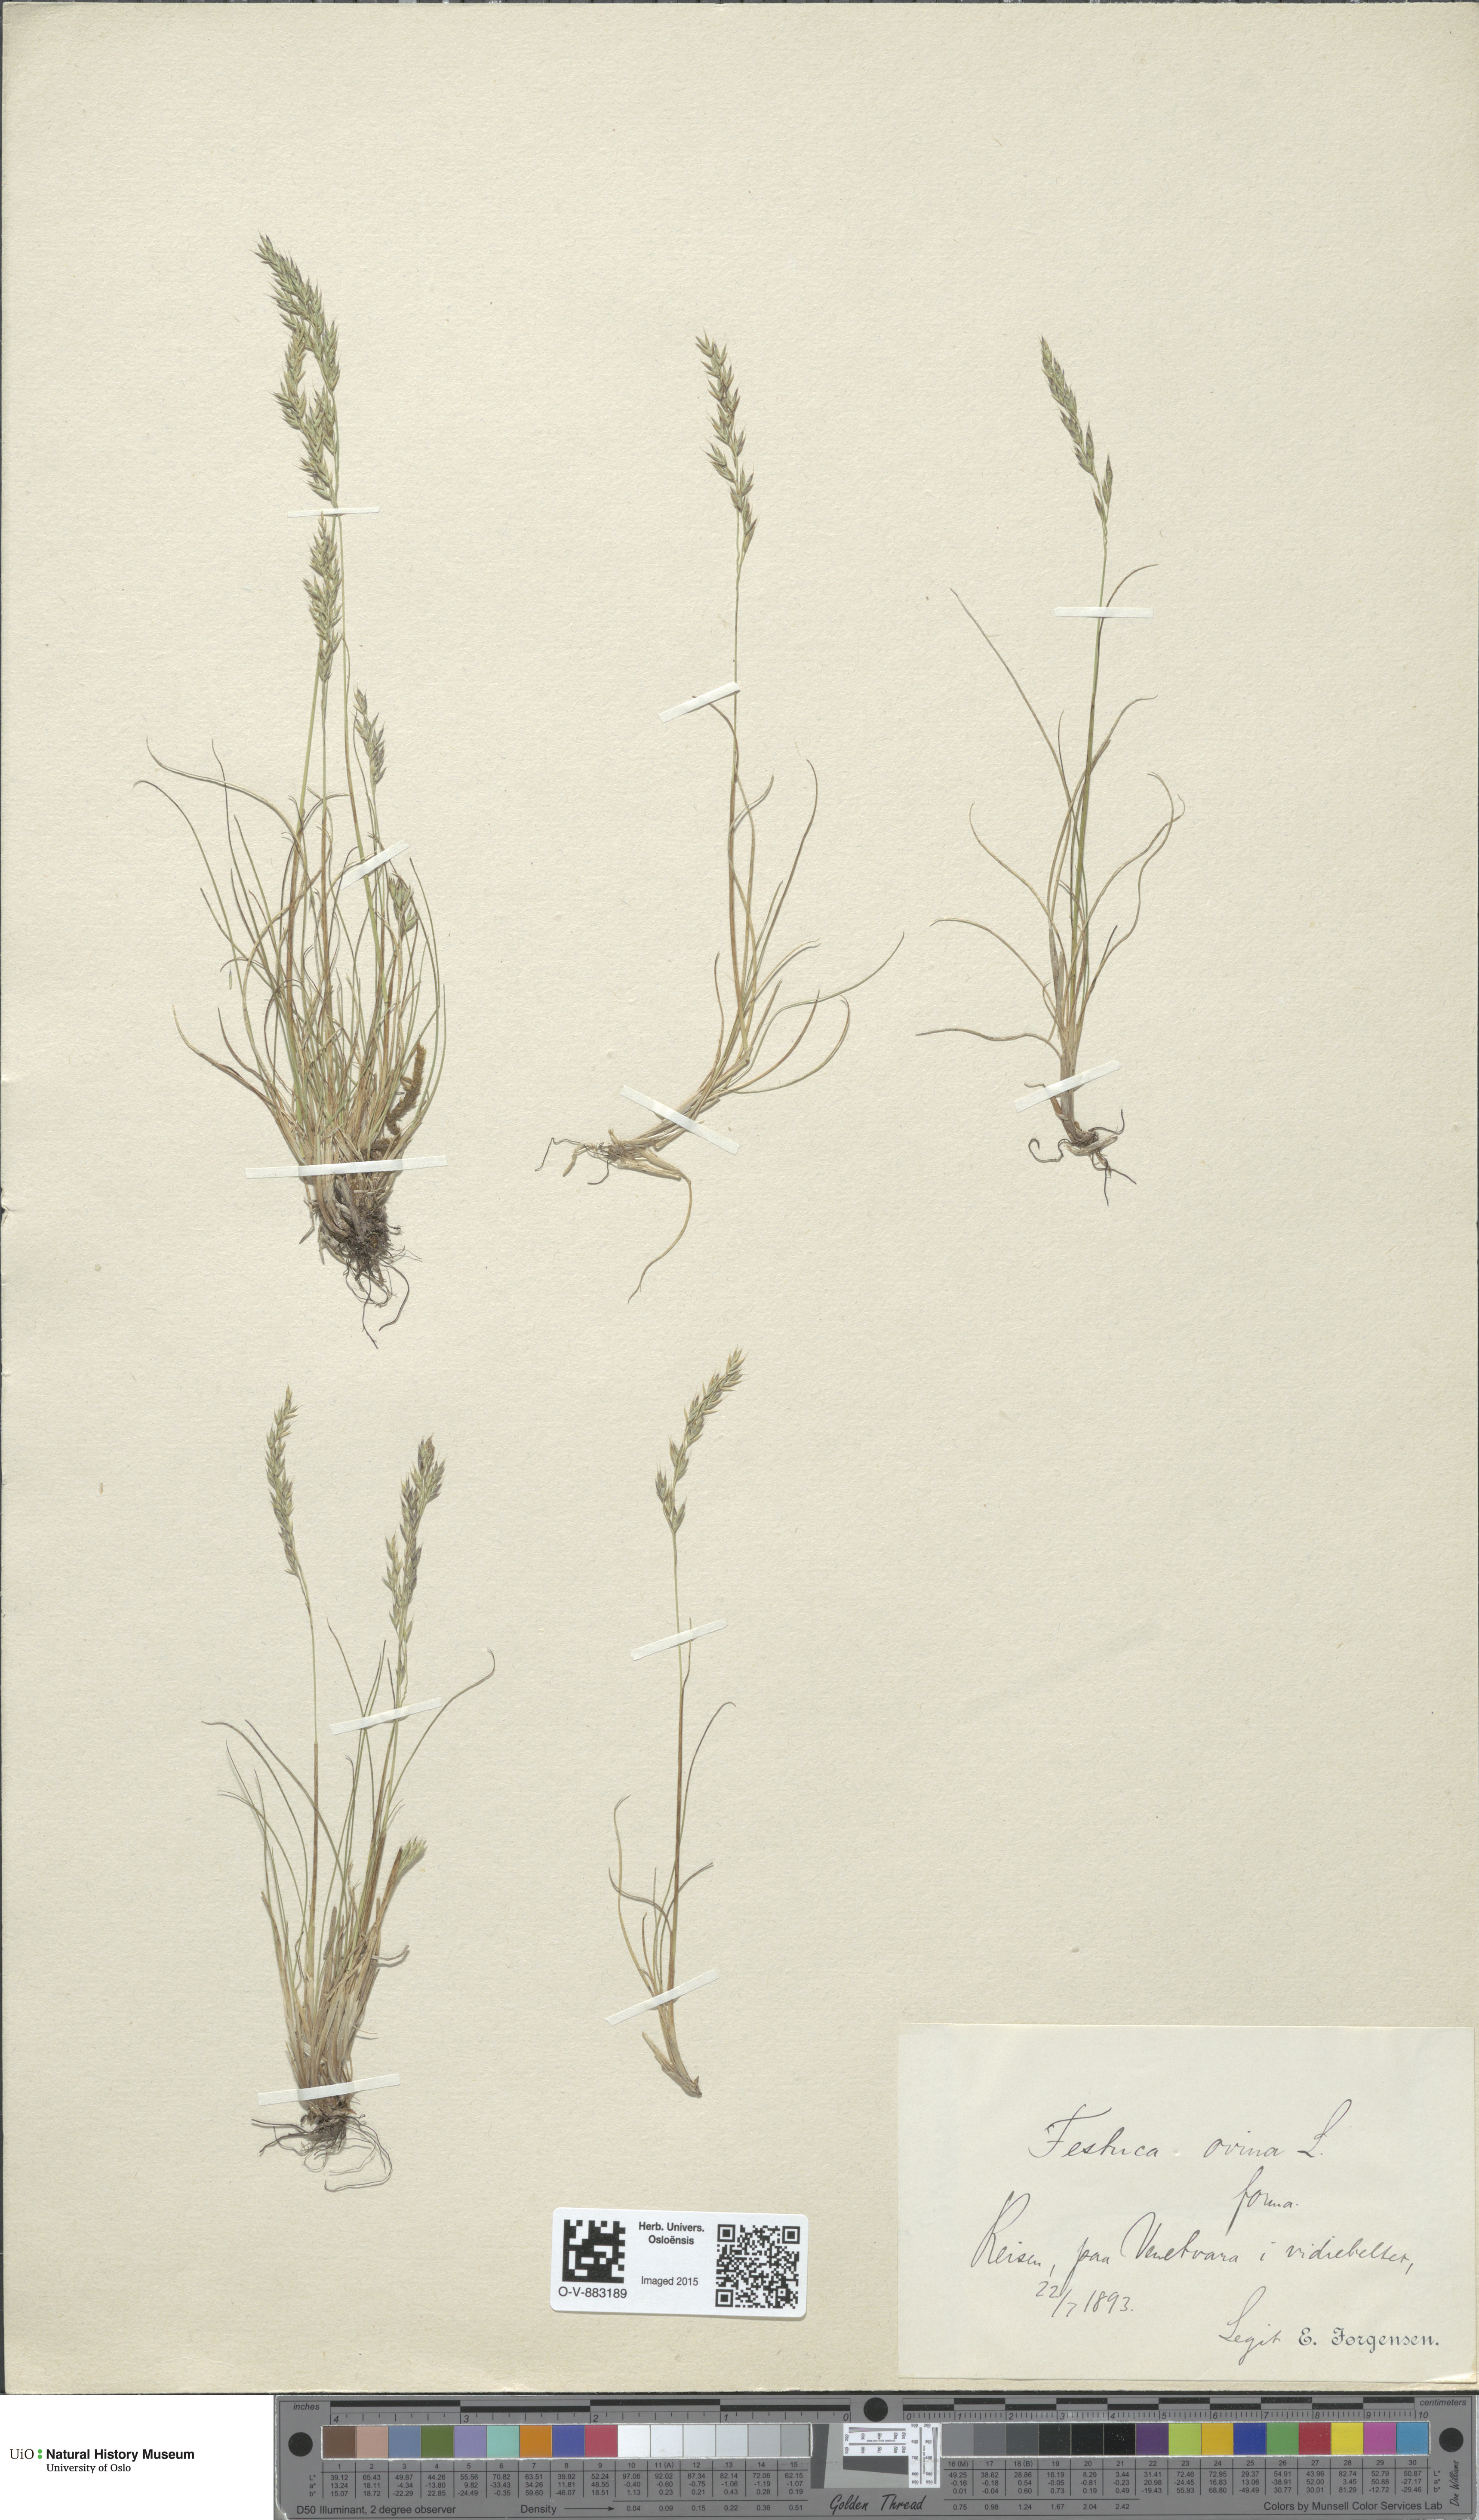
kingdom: Plantae
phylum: Tracheophyta
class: Liliopsida
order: Poales
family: Poaceae
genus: Festuca
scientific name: Festuca ovina
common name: Sheep fescue
